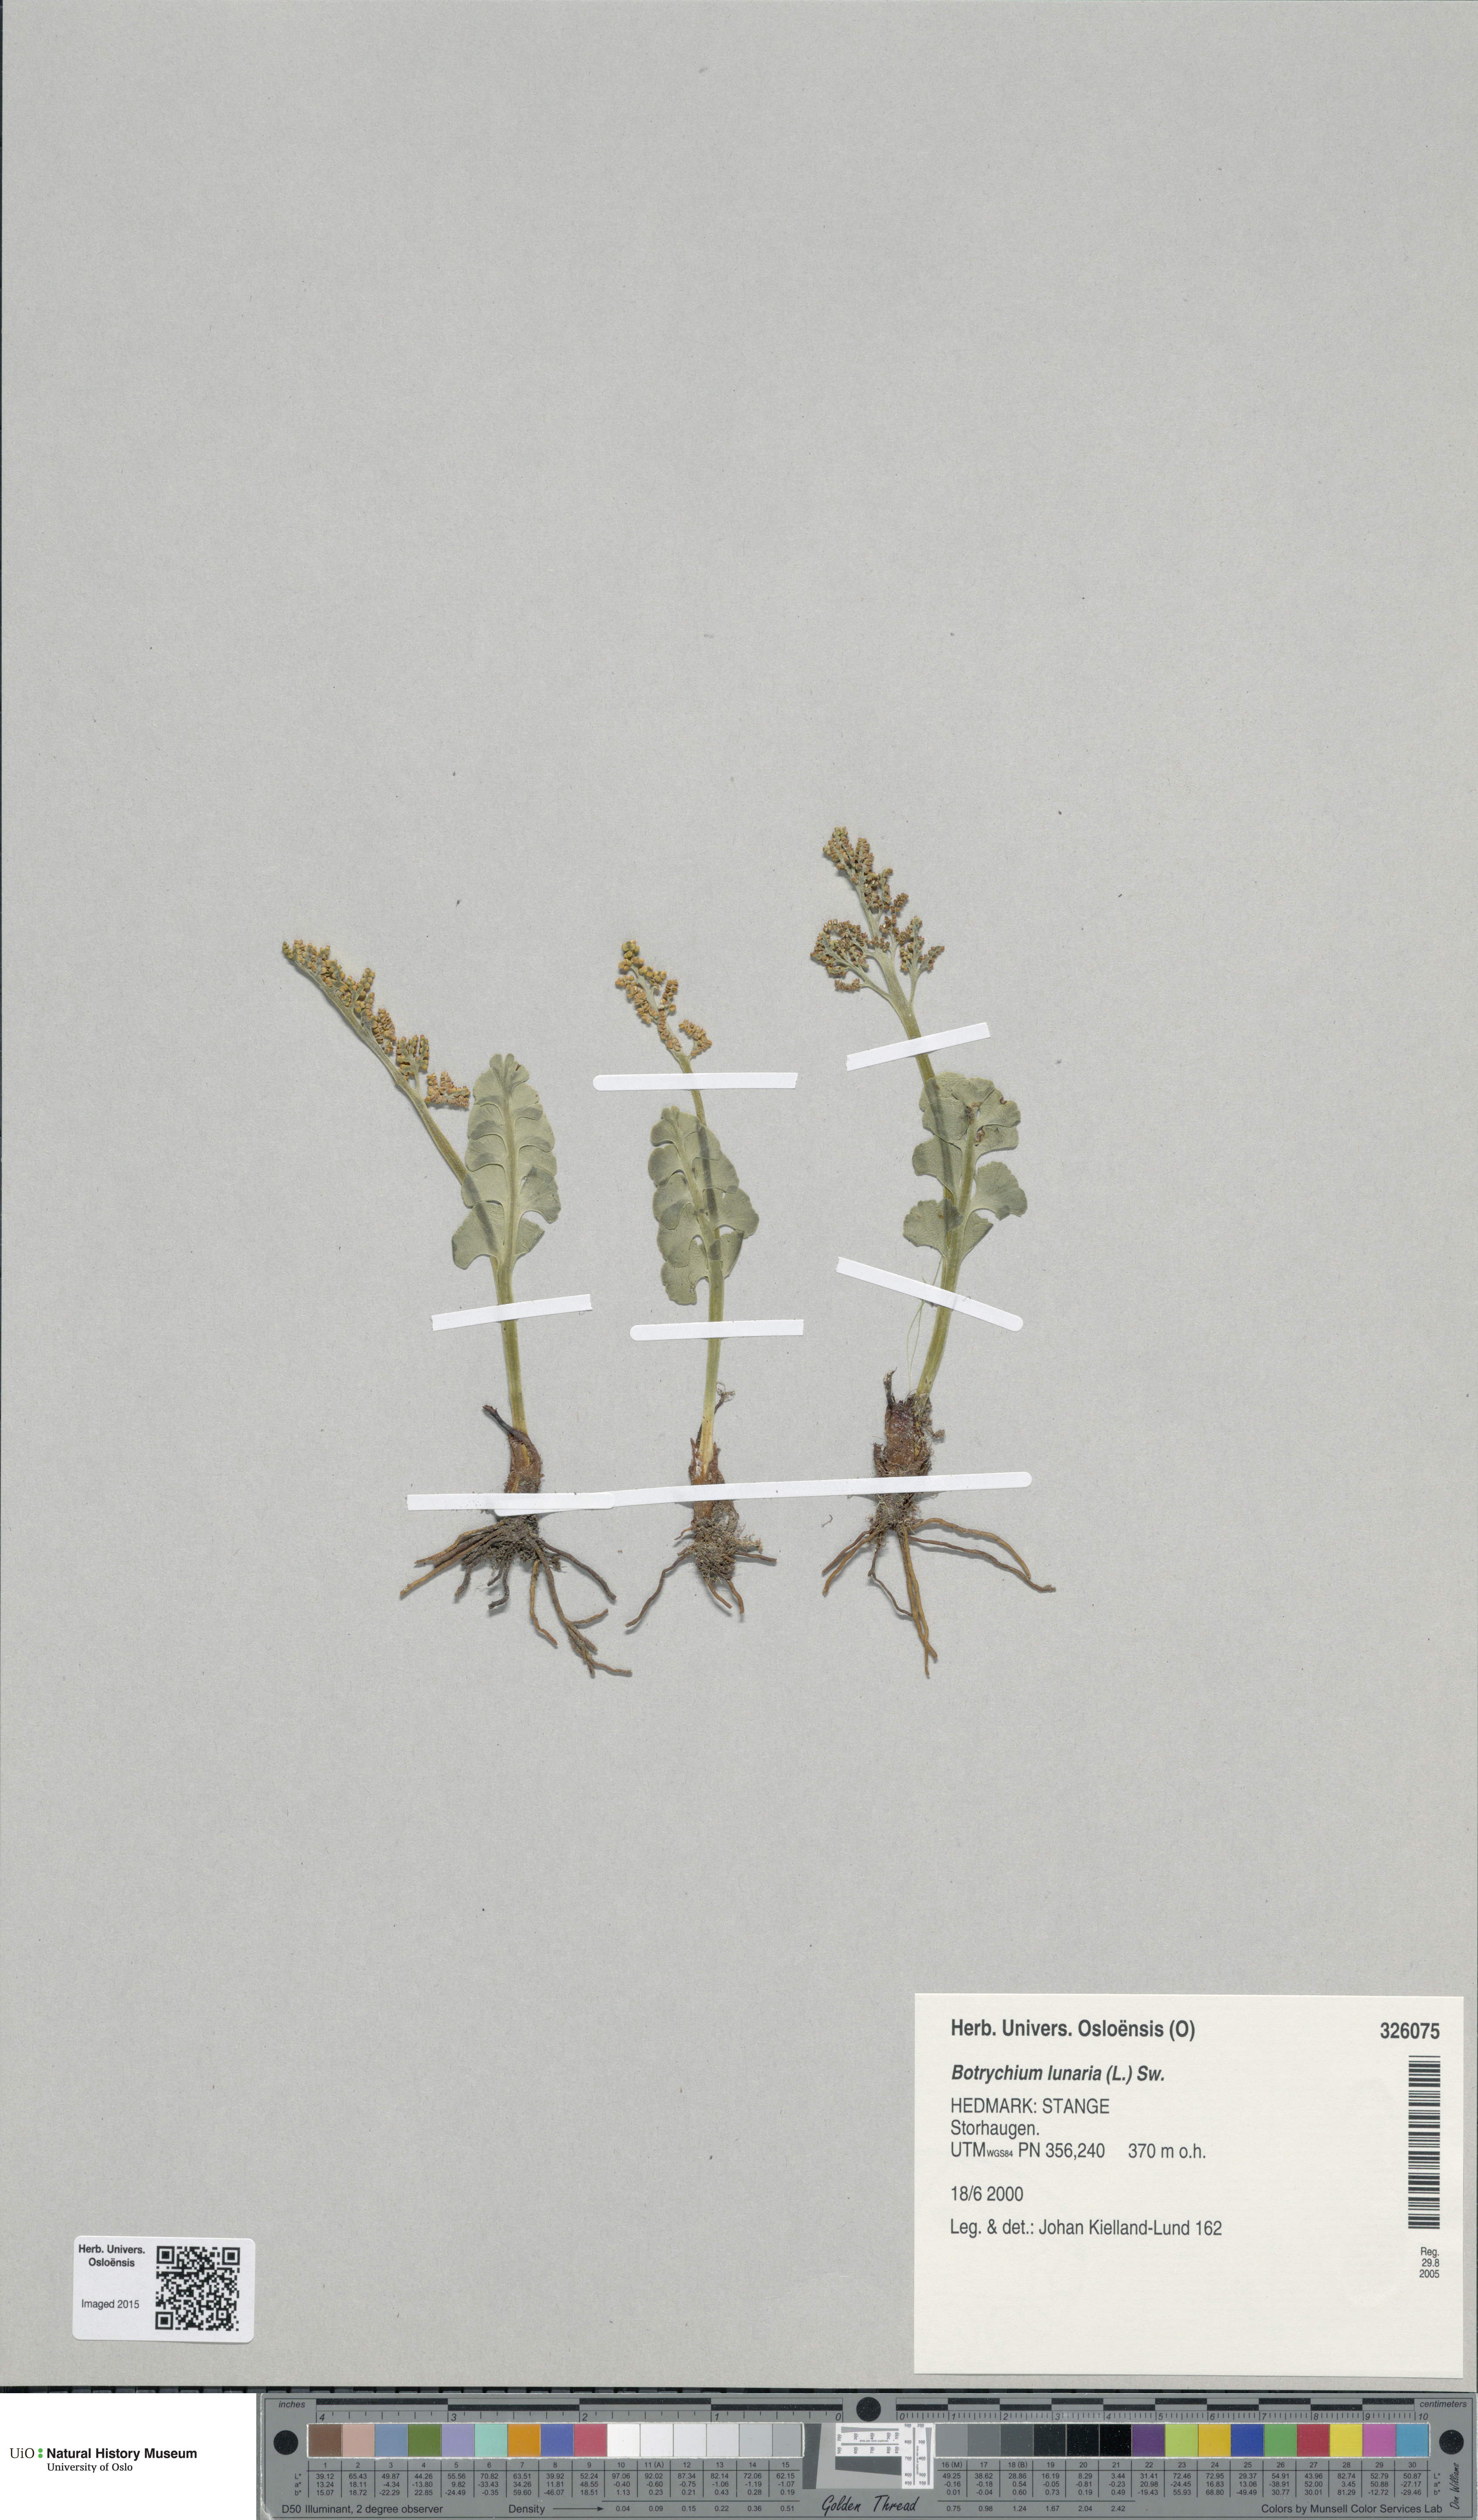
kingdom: Plantae
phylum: Tracheophyta
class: Polypodiopsida
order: Ophioglossales
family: Ophioglossaceae
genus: Botrychium
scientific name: Botrychium lunaria
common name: Moonwort
